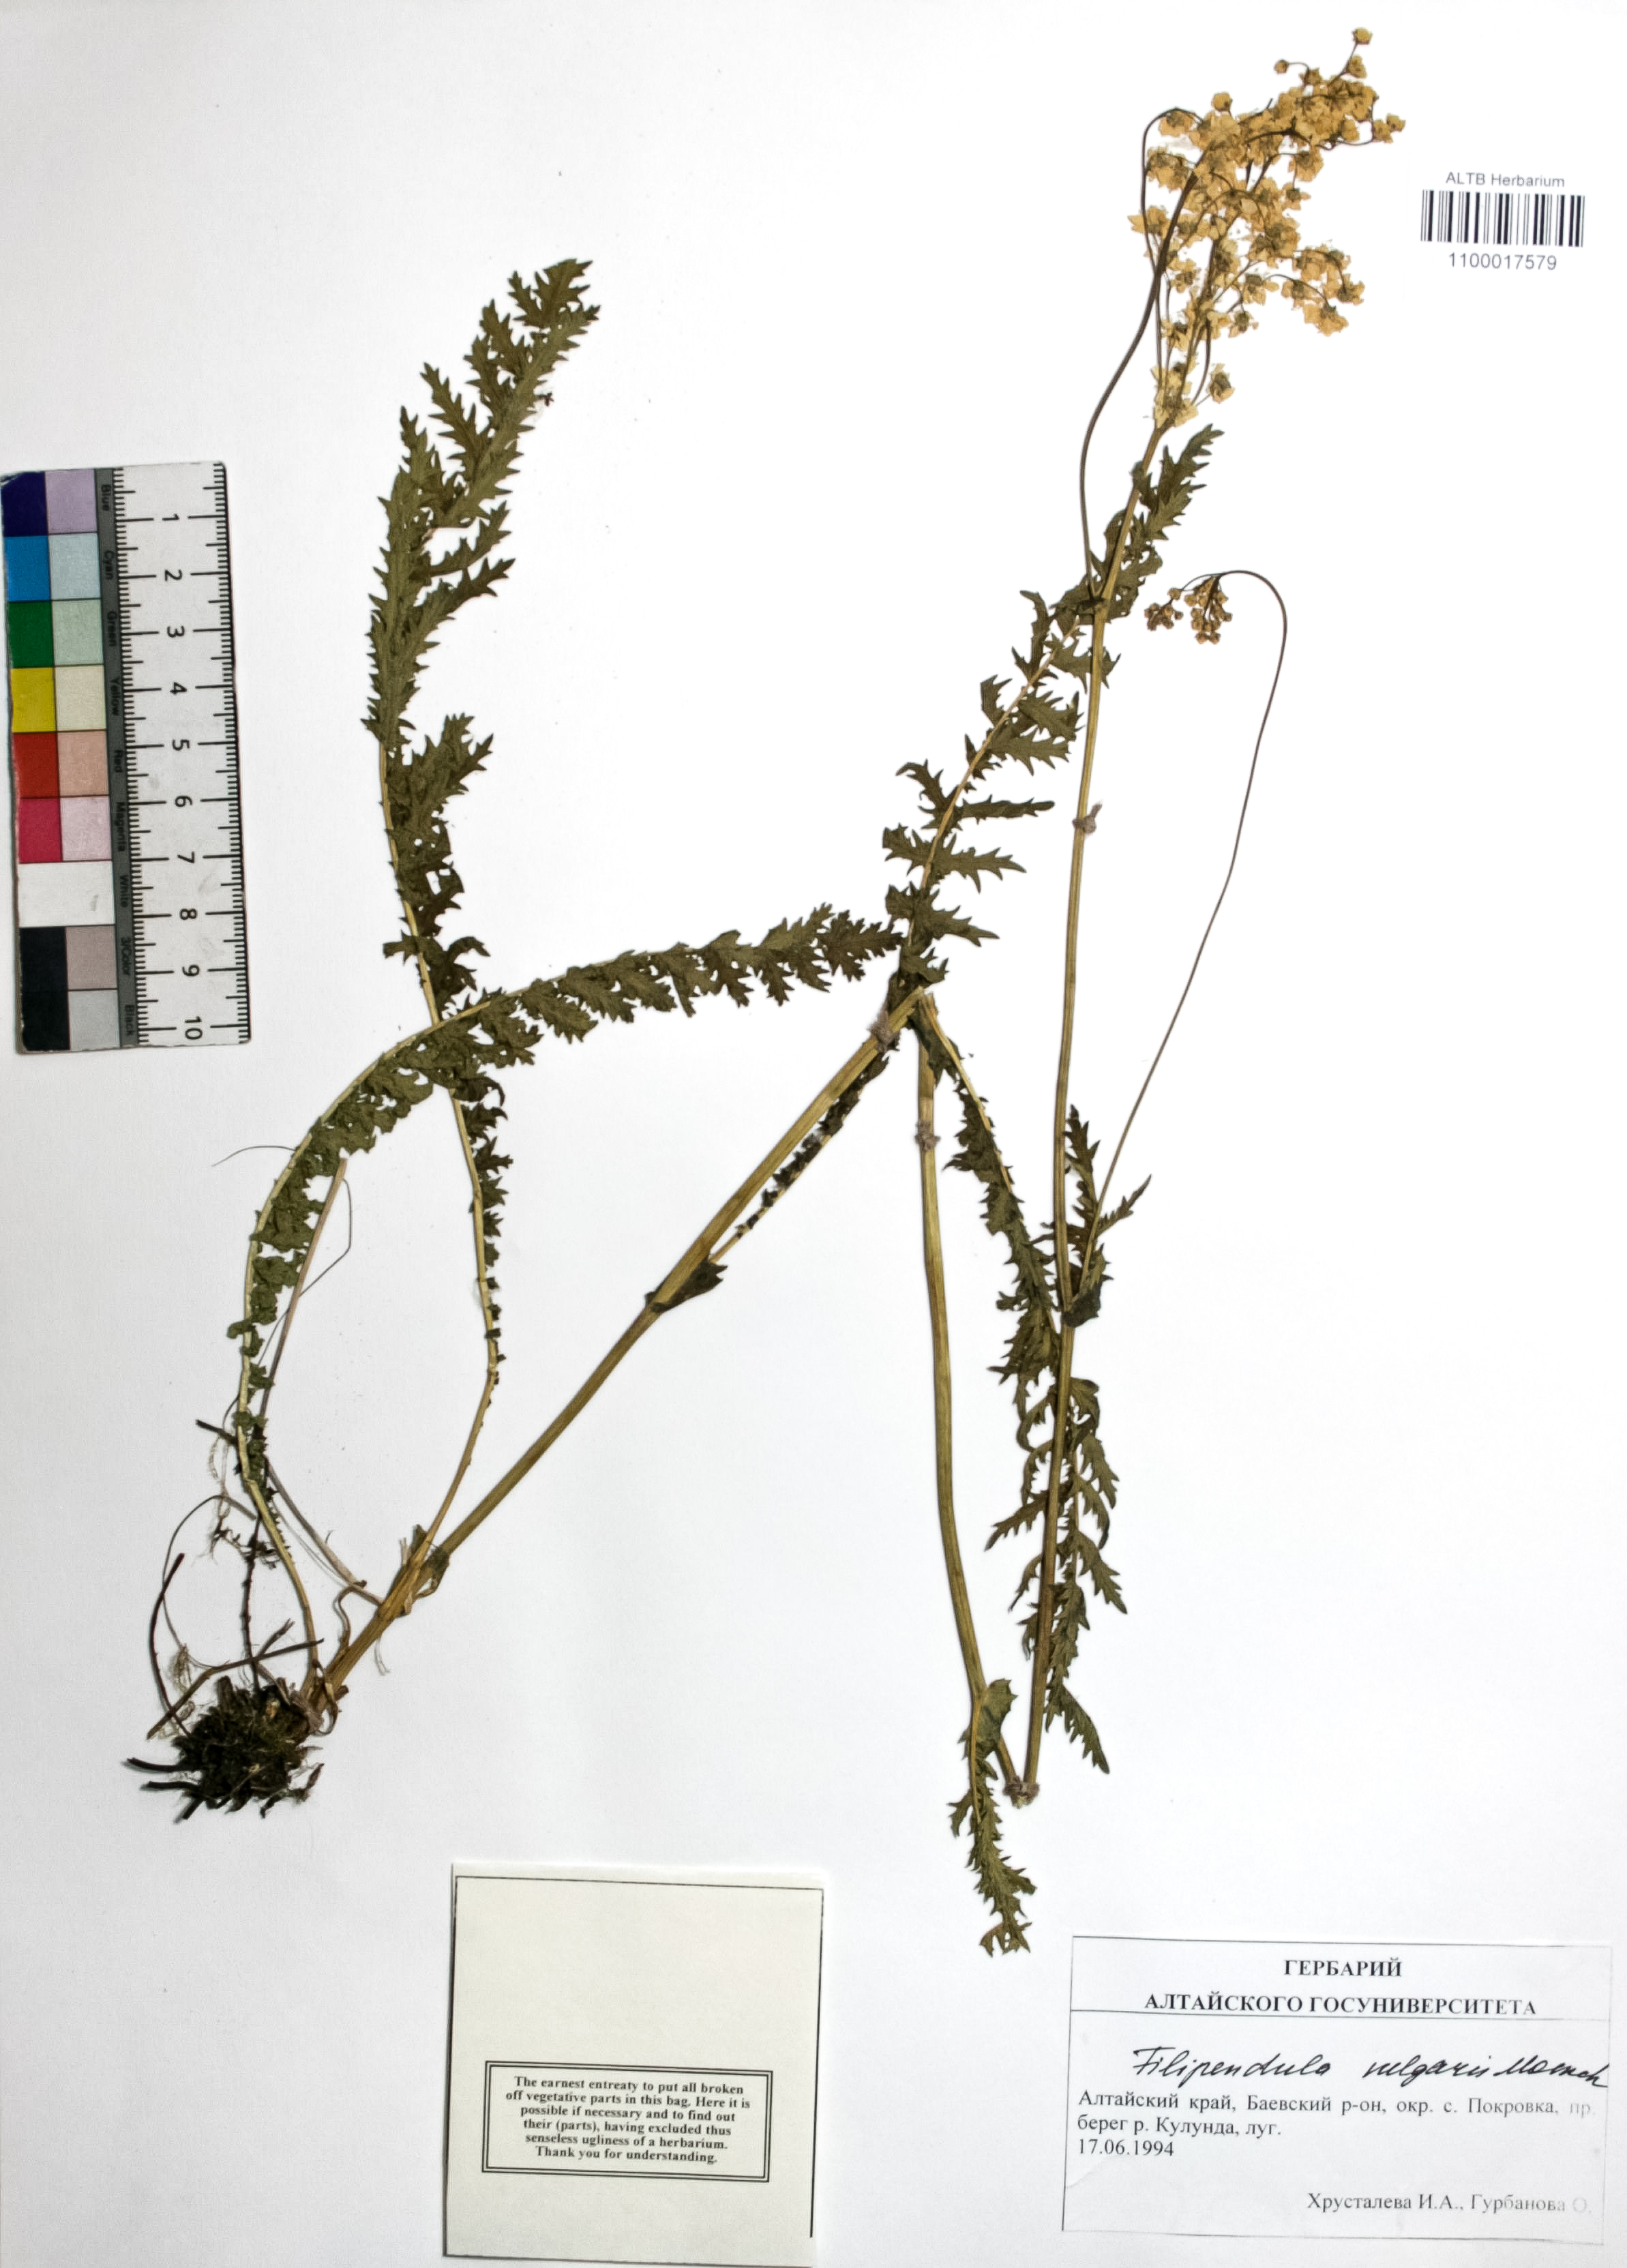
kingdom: Plantae
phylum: Tracheophyta
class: Magnoliopsida
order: Rosales
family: Rosaceae
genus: Filipendula
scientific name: Filipendula vulgaris
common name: Dropwort
